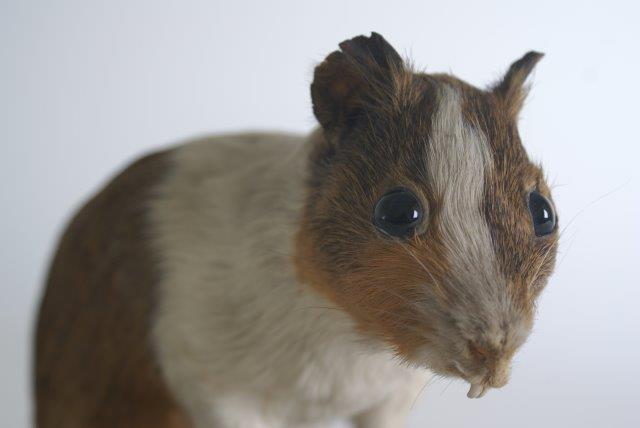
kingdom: Animalia
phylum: Chordata
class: Mammalia
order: Rodentia
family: Caviidae
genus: Cavia
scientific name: Cavia aperea
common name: Brazilian Guinea Pig
